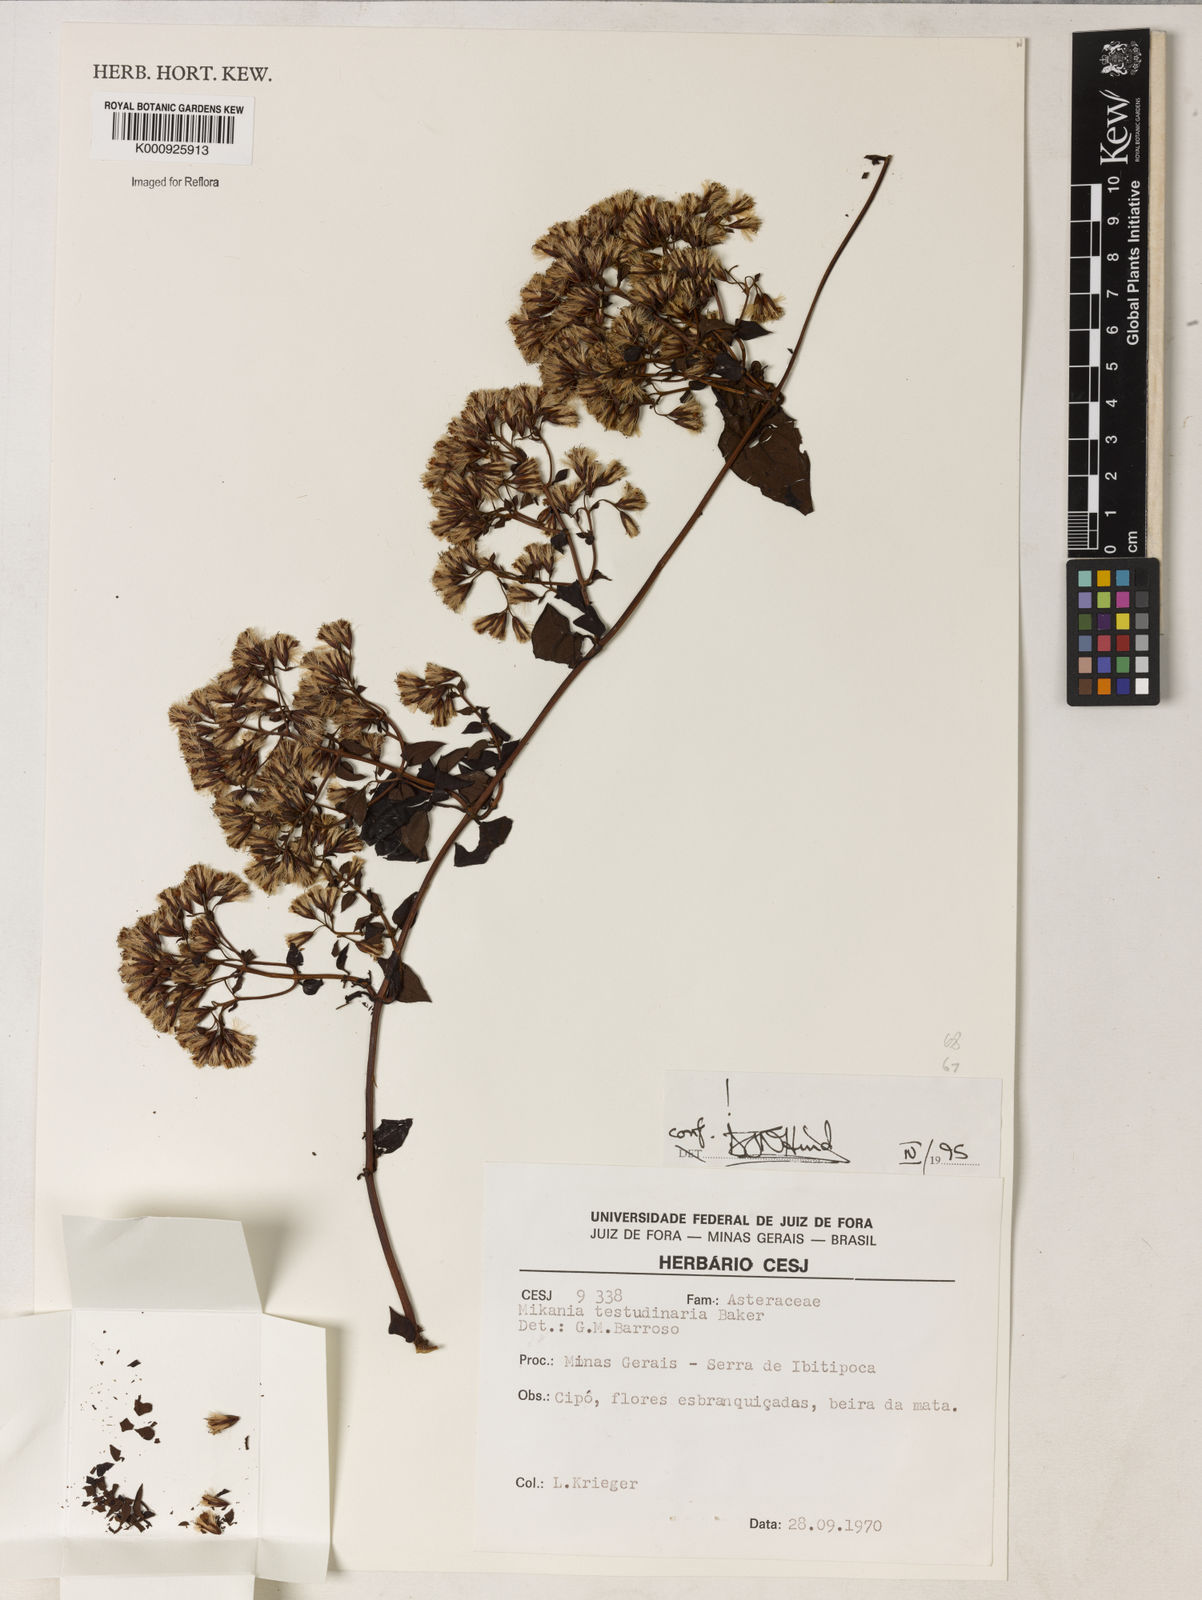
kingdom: Plantae
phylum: Tracheophyta
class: Magnoliopsida
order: Asterales
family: Asteraceae
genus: Mikania
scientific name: Mikania testudinaria
